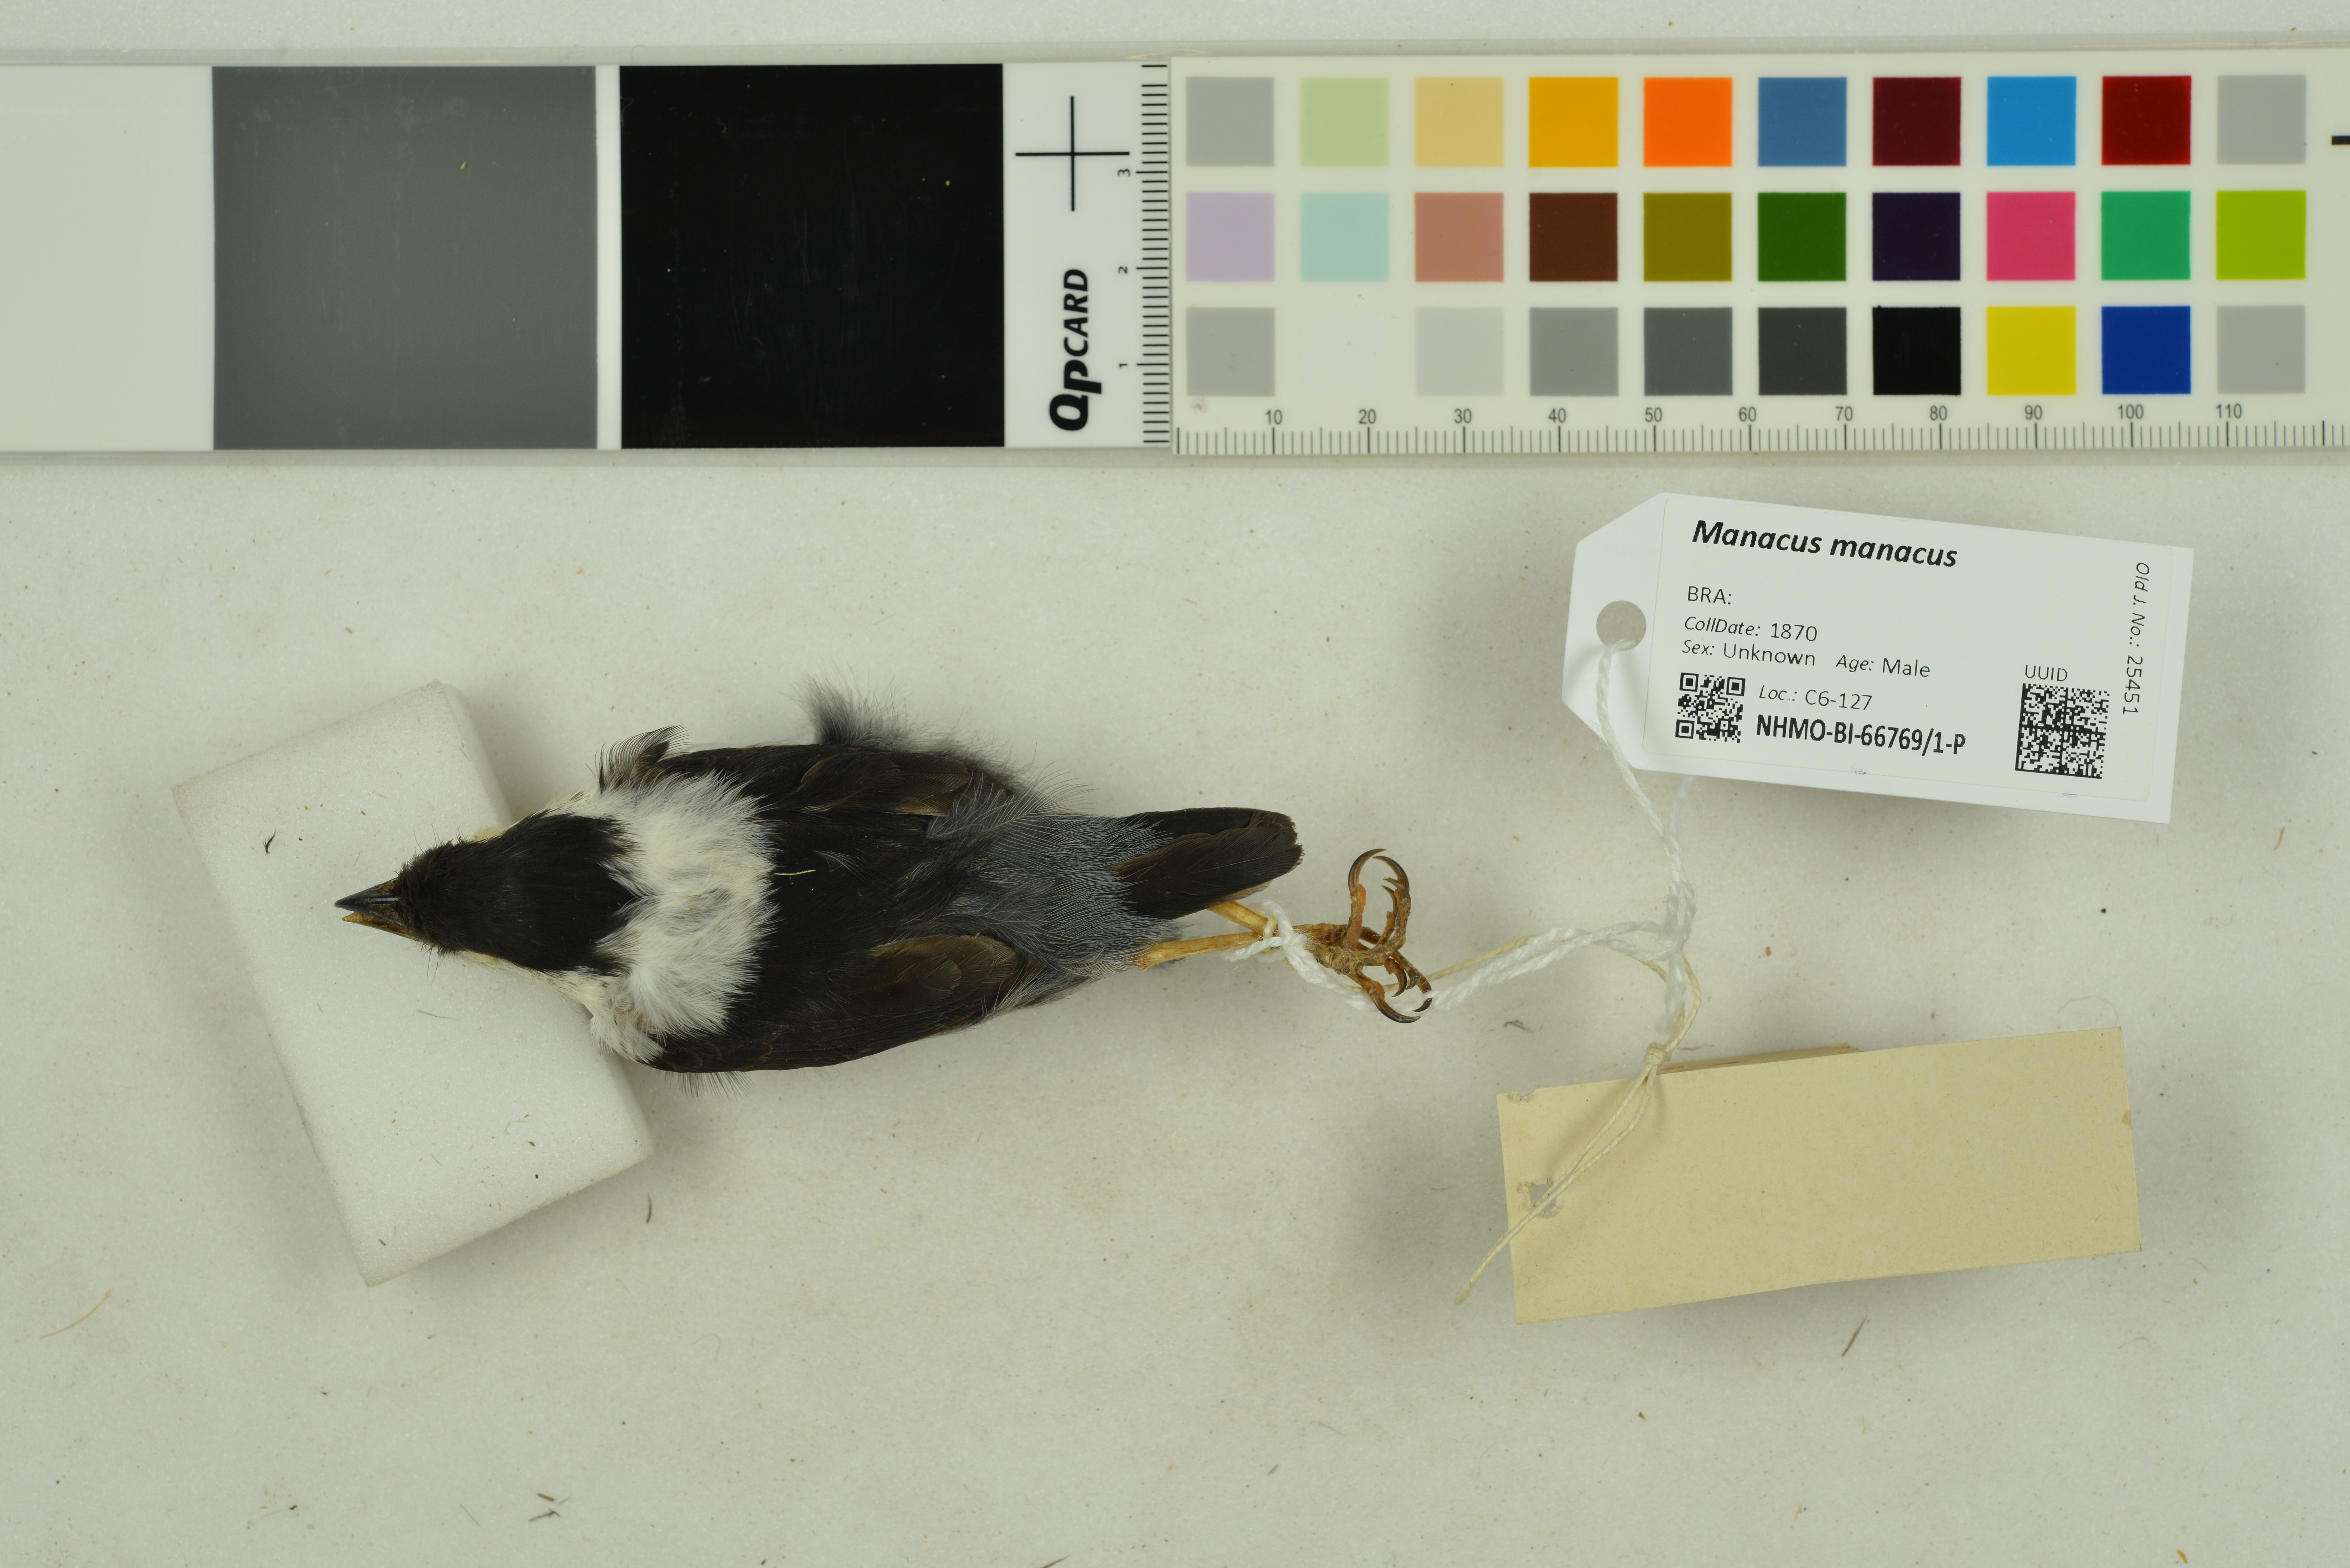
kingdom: Animalia
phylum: Chordata
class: Aves
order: Passeriformes
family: Pipridae
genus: Manacus
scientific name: Manacus manacus
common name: White-bearded manakin
